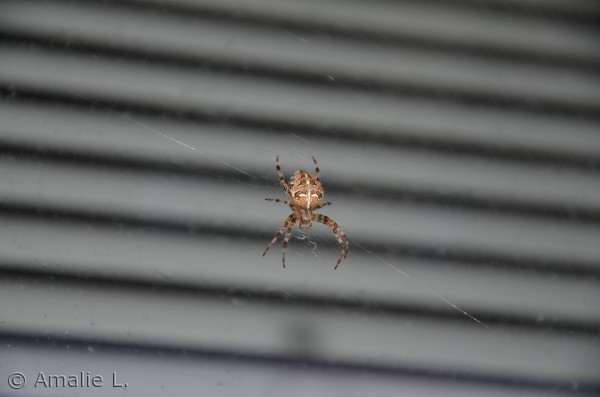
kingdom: Animalia
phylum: Arthropoda
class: Arachnida
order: Araneae
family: Araneidae
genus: Araneus
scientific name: Araneus diadematus
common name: Korsedderkop
